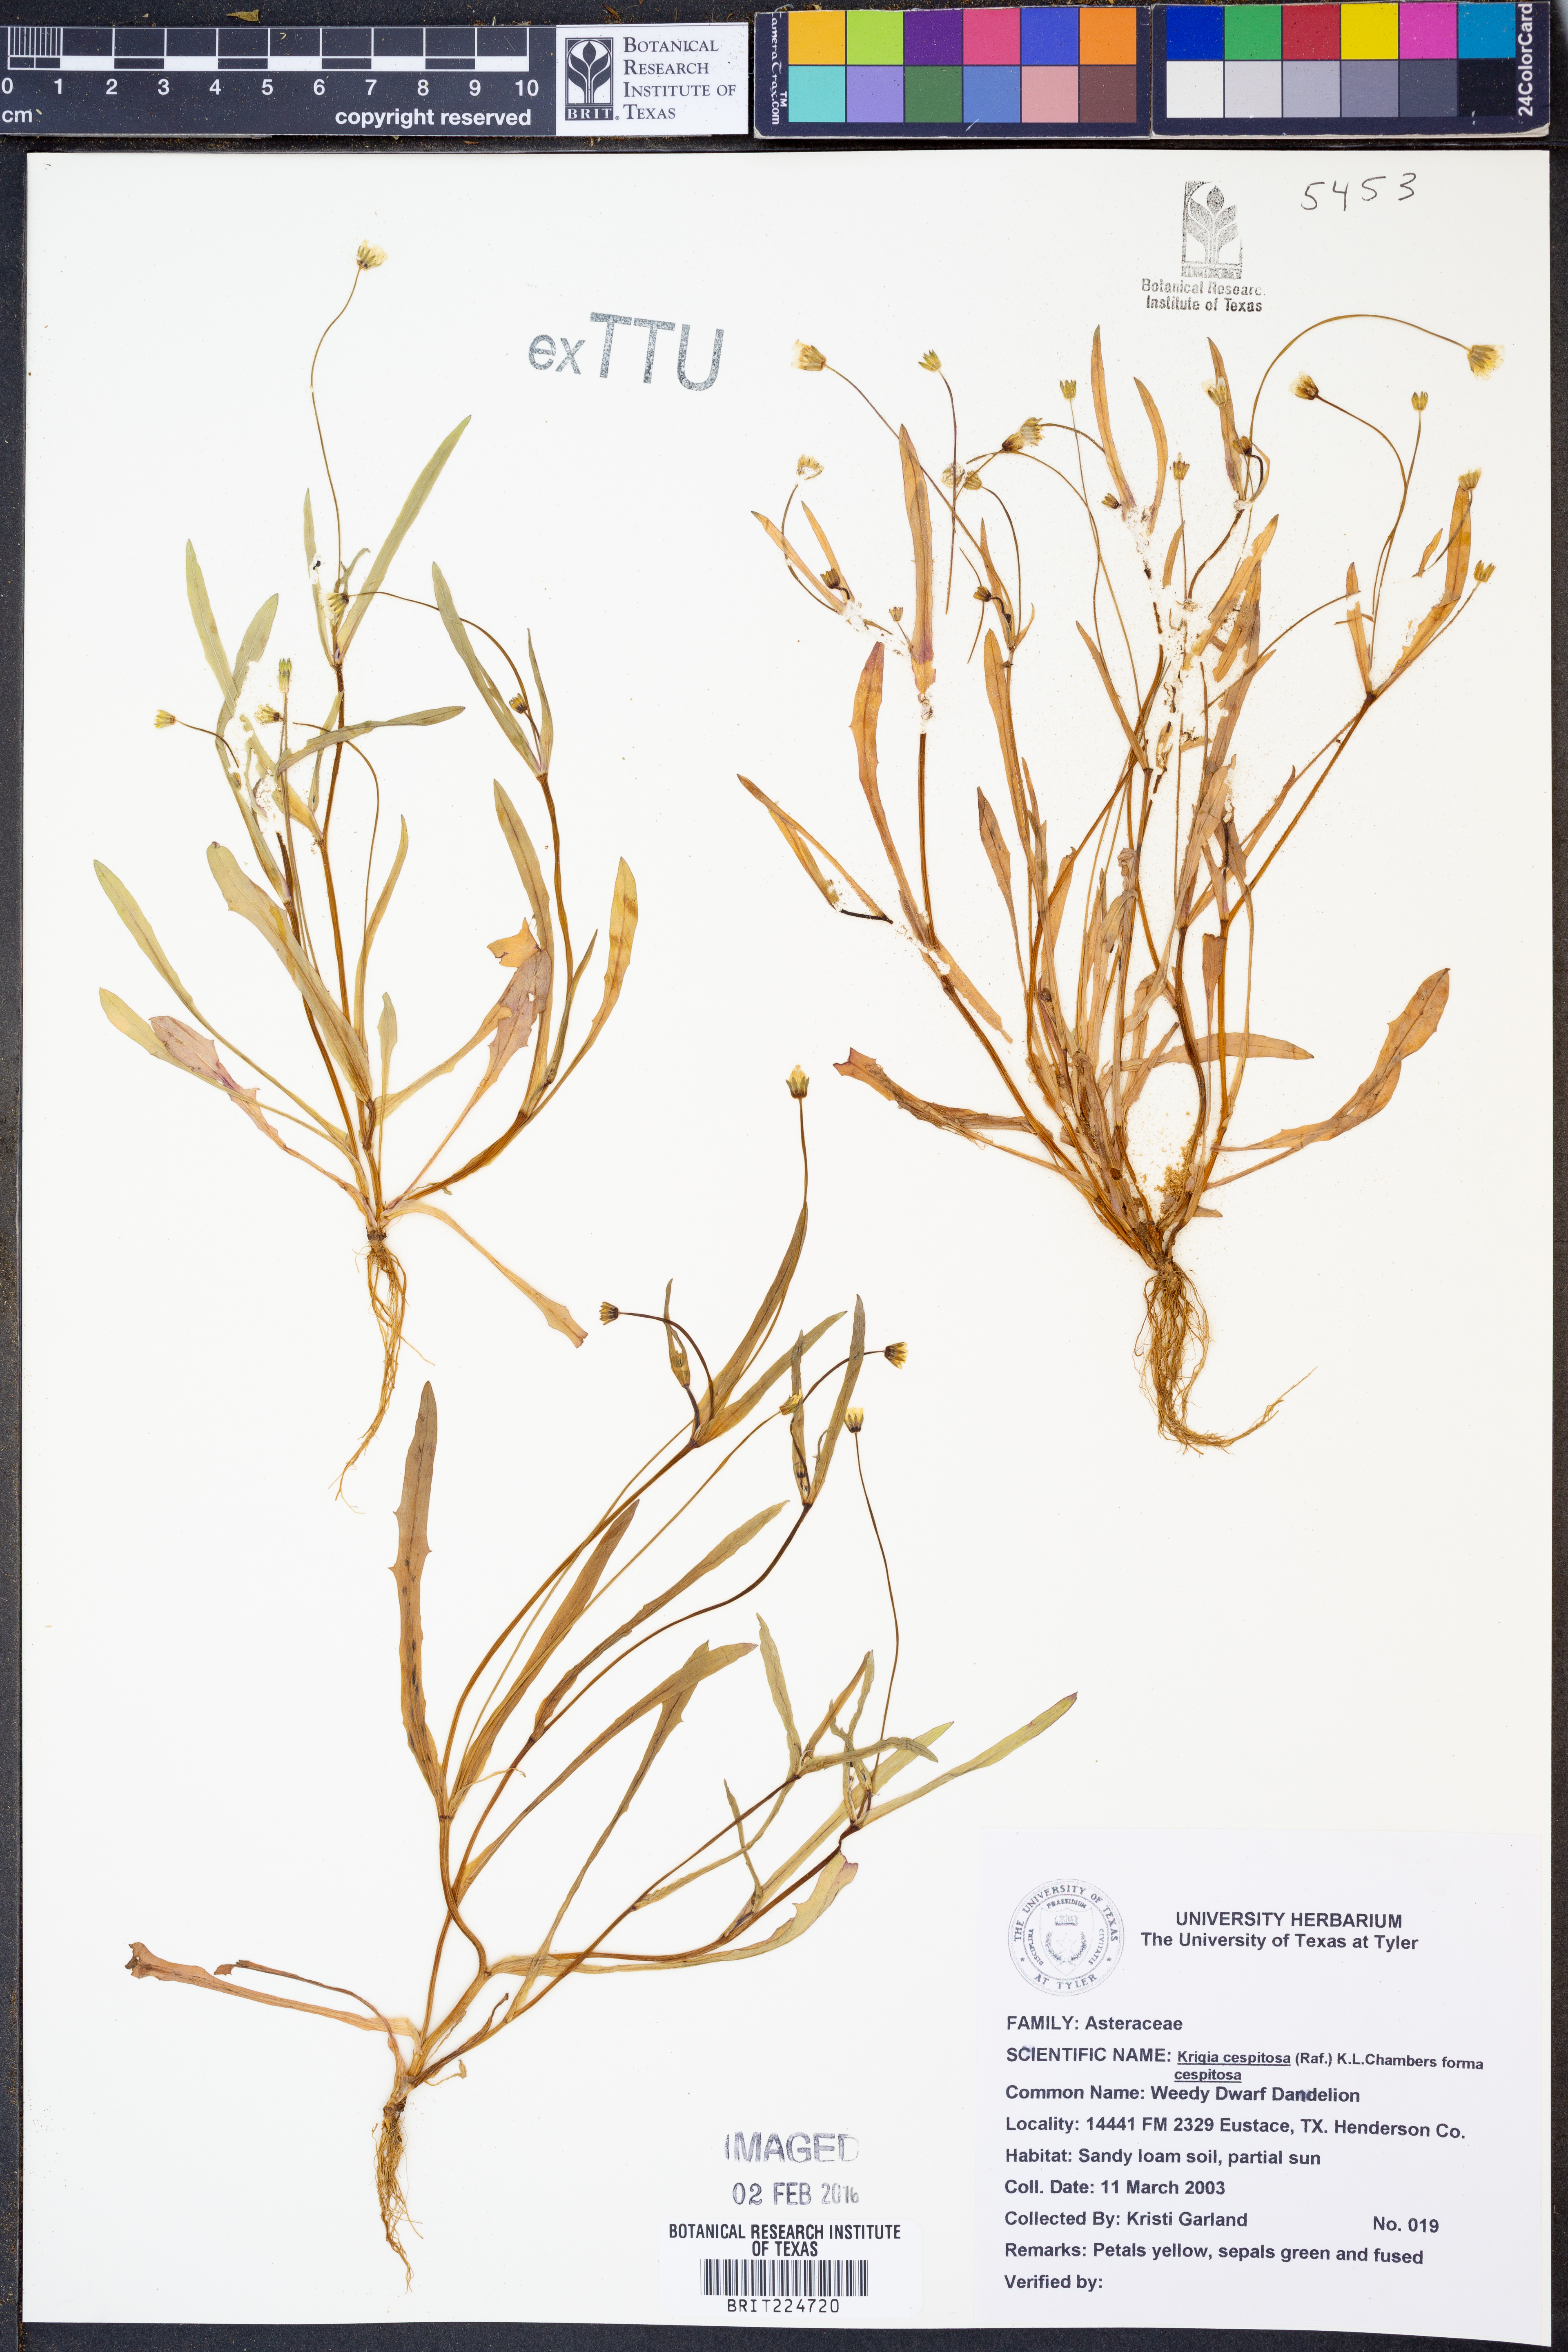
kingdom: Plantae
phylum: Tracheophyta
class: Magnoliopsida
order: Asterales
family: Asteraceae
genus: Krigia
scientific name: Krigia cespitosa
